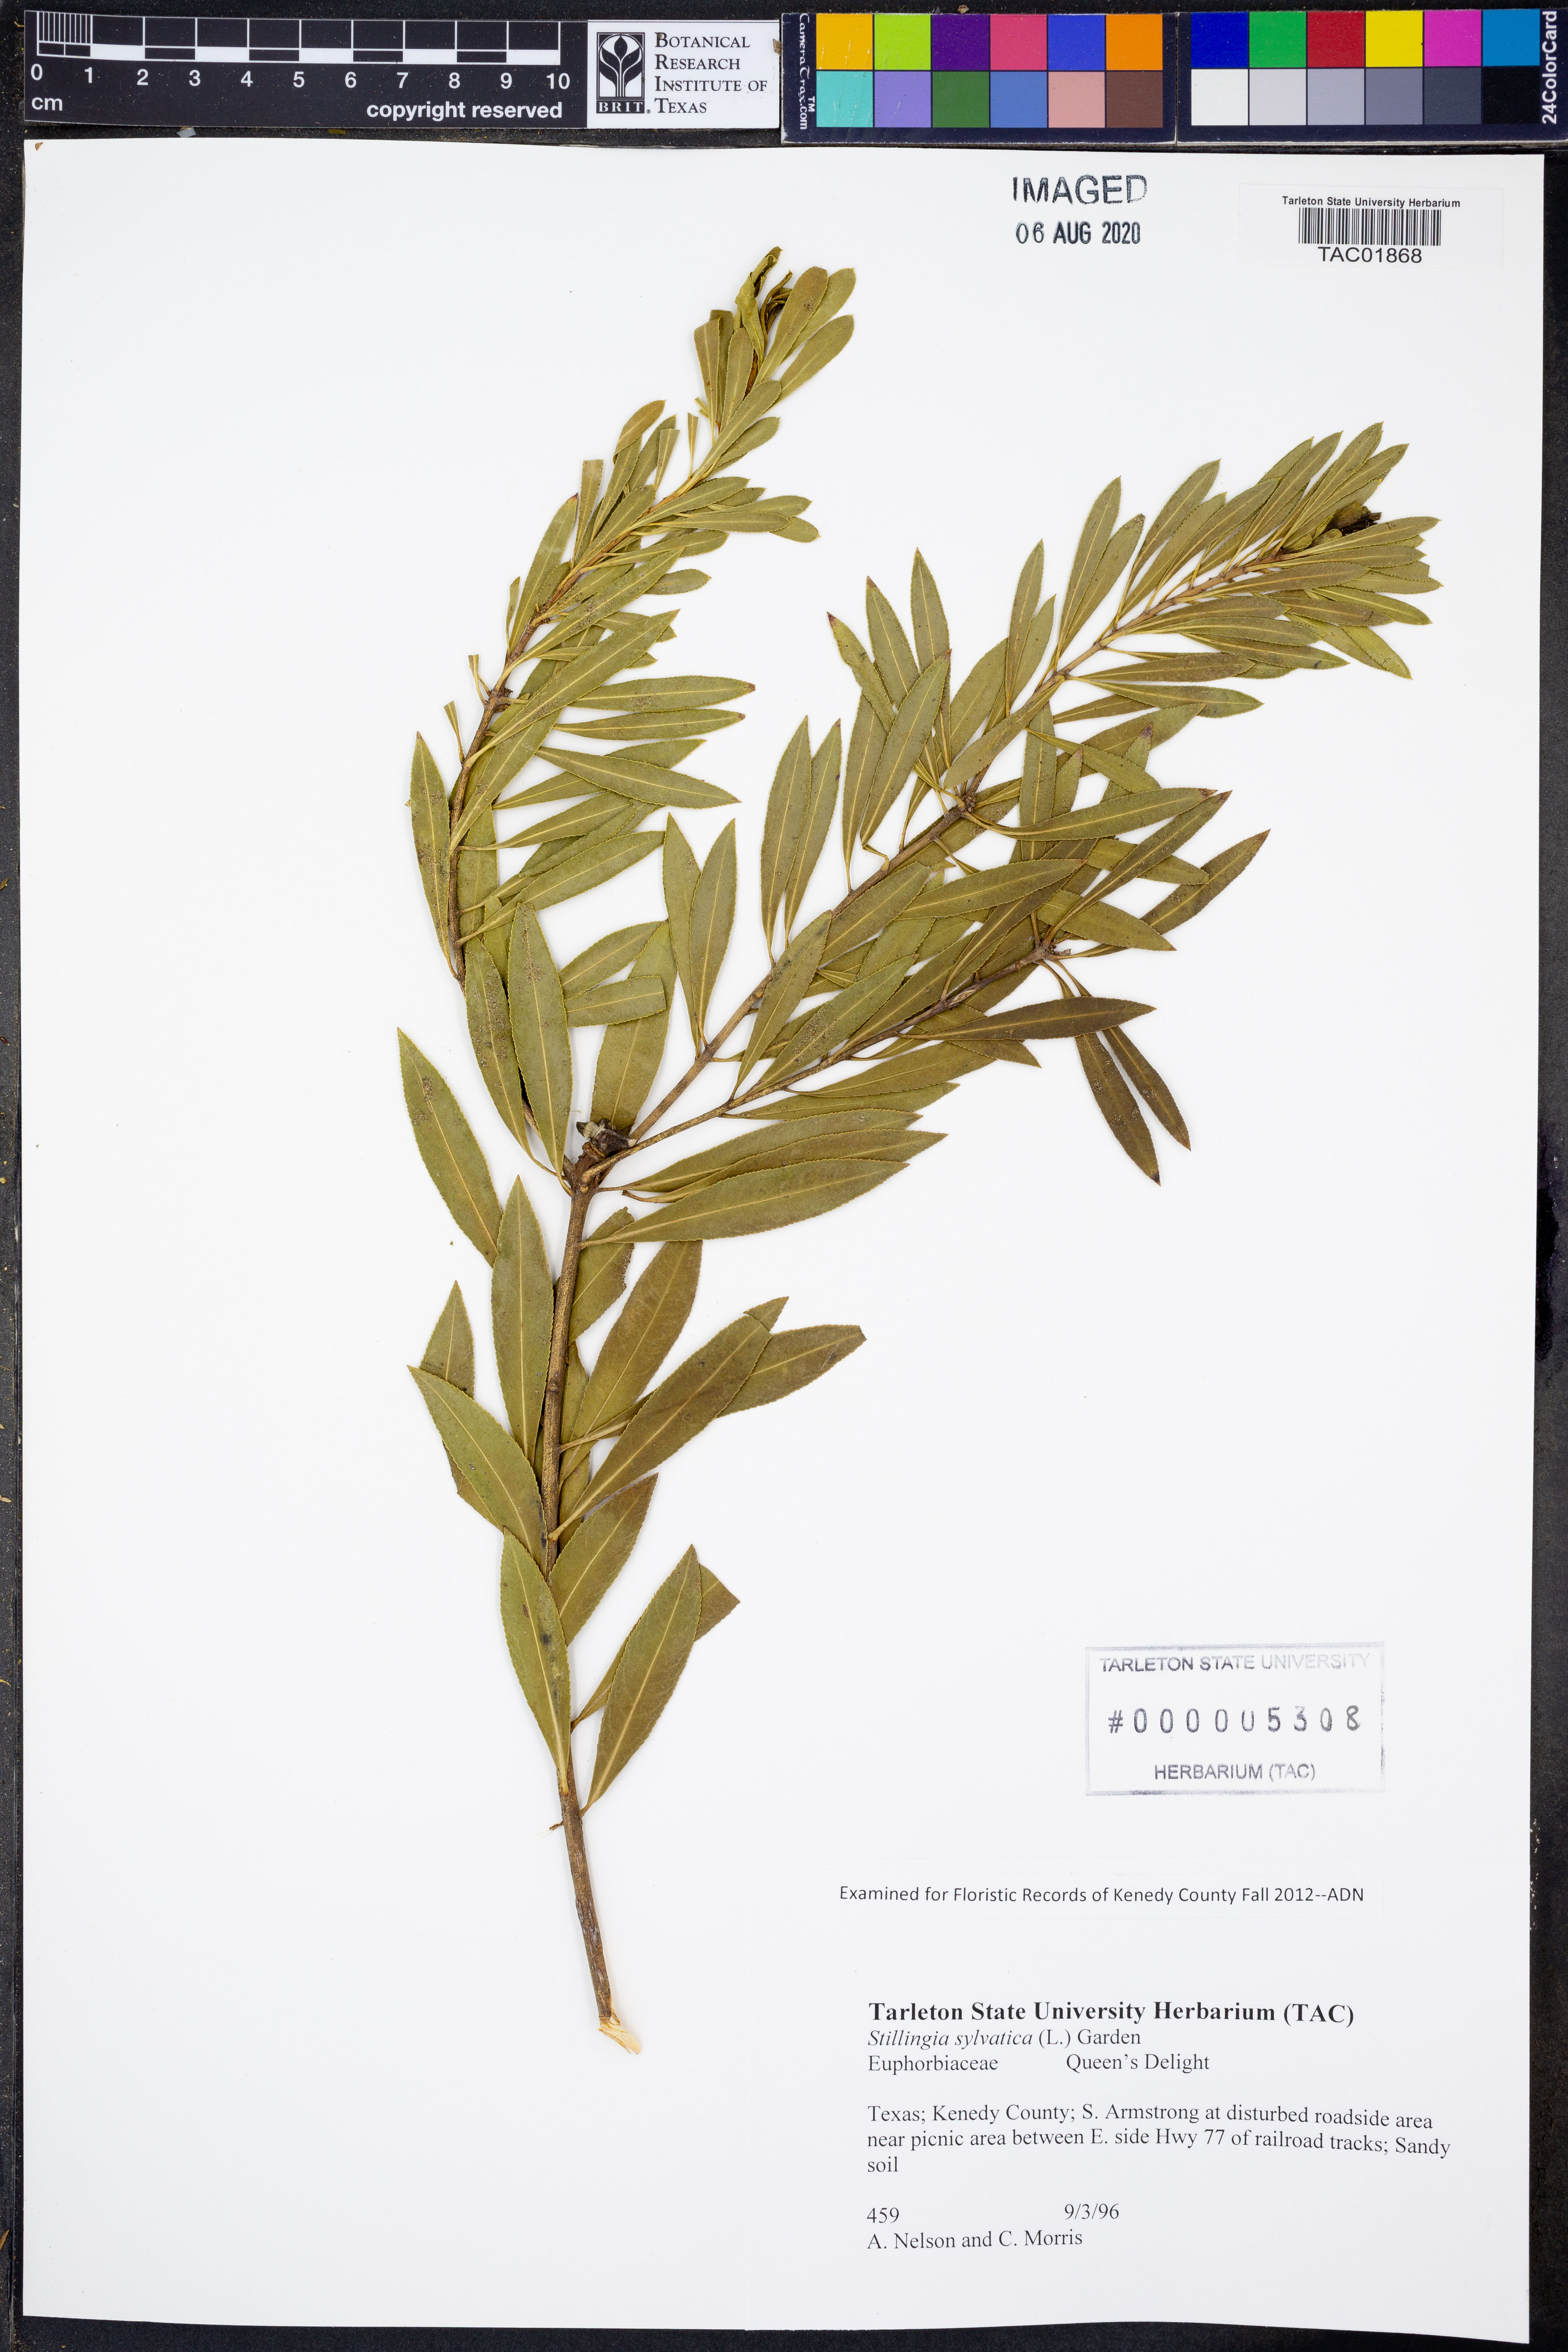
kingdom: Plantae
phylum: Tracheophyta
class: Magnoliopsida
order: Malpighiales
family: Euphorbiaceae
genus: Stillingia
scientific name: Stillingia sylvatica
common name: Queen's-delight
